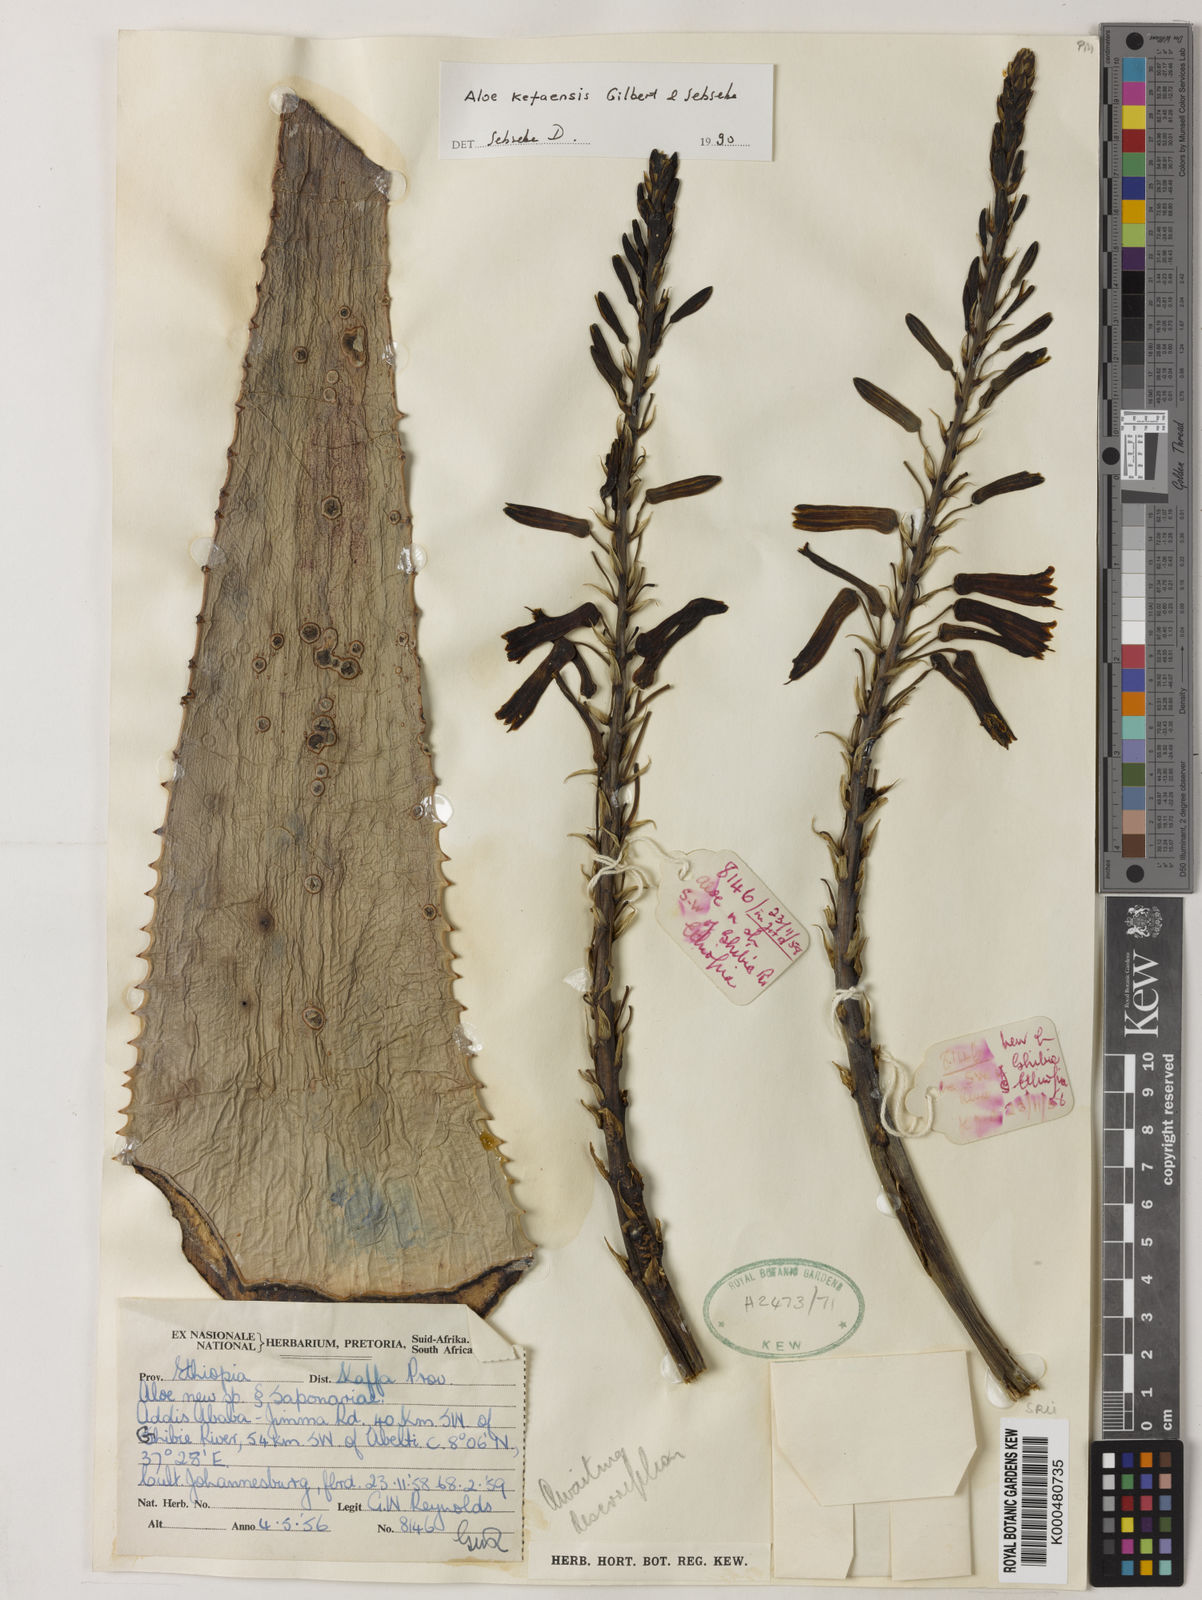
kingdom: Plantae
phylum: Tracheophyta
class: Liliopsida
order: Asparagales
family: Asphodelaceae
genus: Aloe
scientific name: Aloe kefaensis
